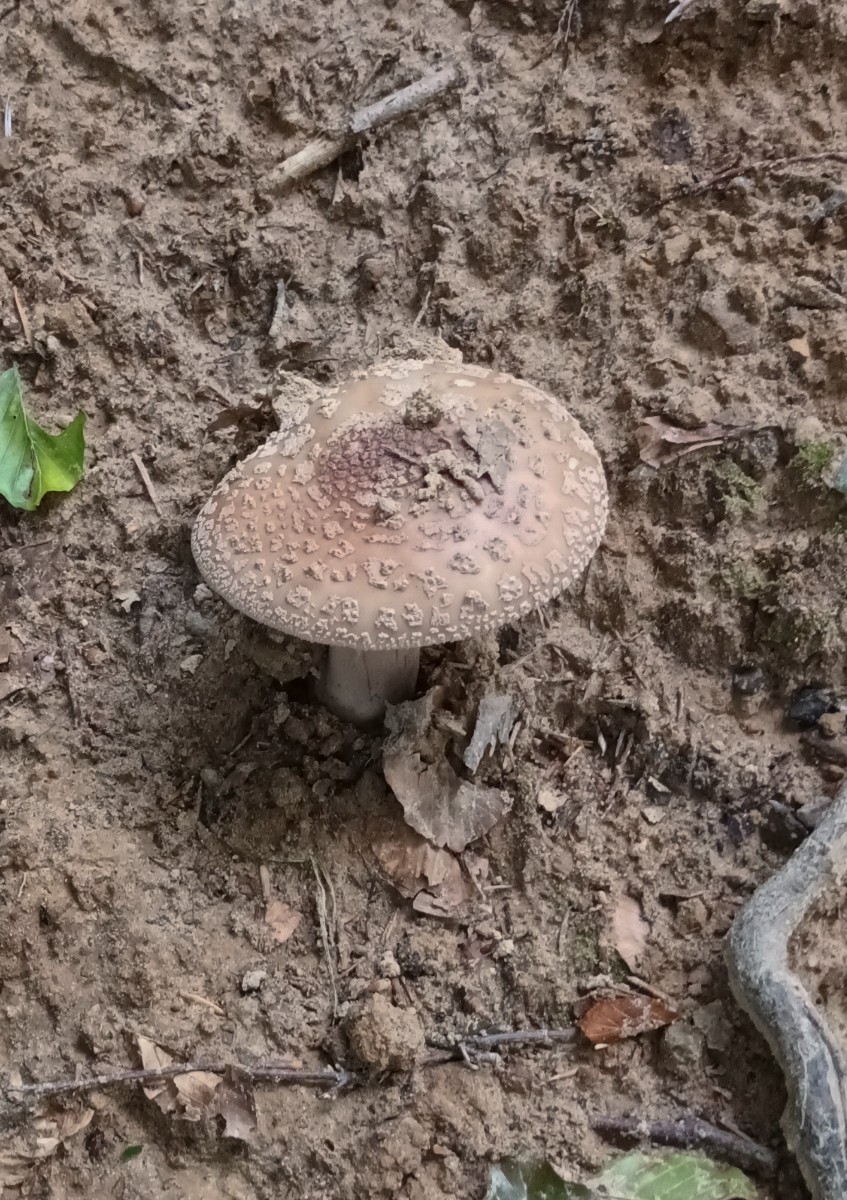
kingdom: Fungi
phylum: Basidiomycota
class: Agaricomycetes
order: Agaricales
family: Amanitaceae
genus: Amanita
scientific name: Amanita rubescens
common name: rødmende fluesvamp
